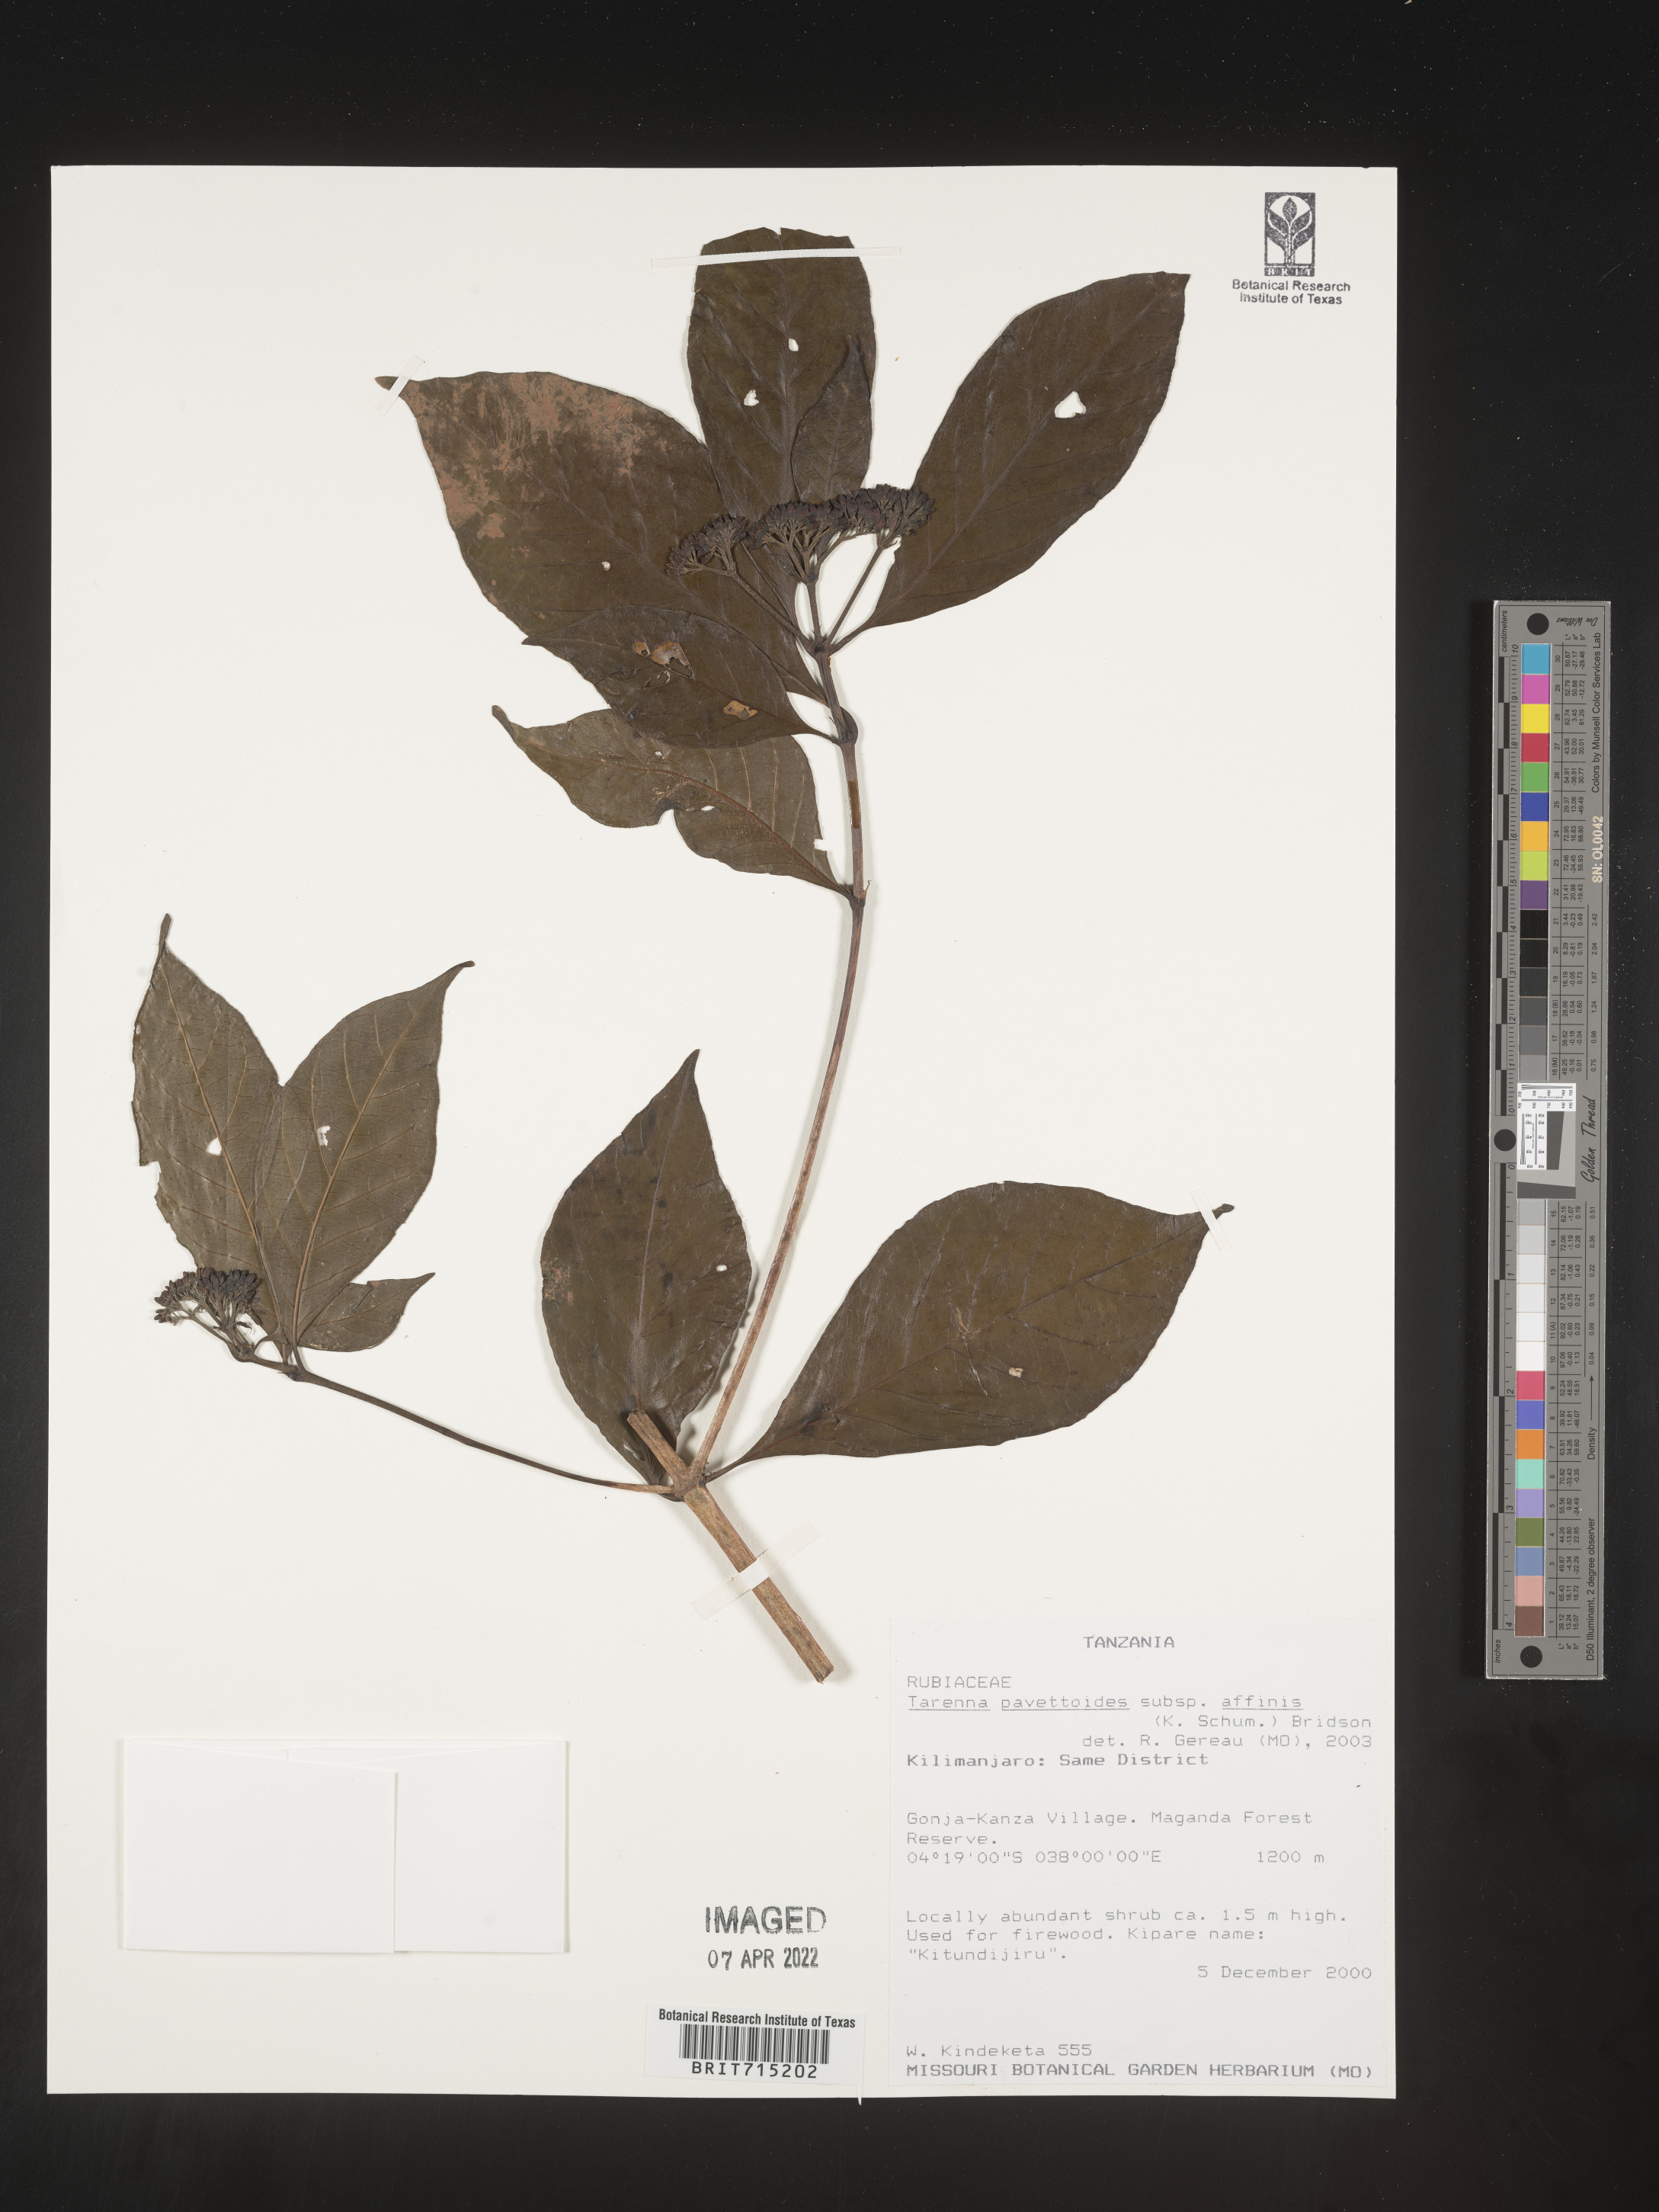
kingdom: Plantae
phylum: Tracheophyta
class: Magnoliopsida
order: Gentianales
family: Rubiaceae
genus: Tarenna
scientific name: Tarenna
